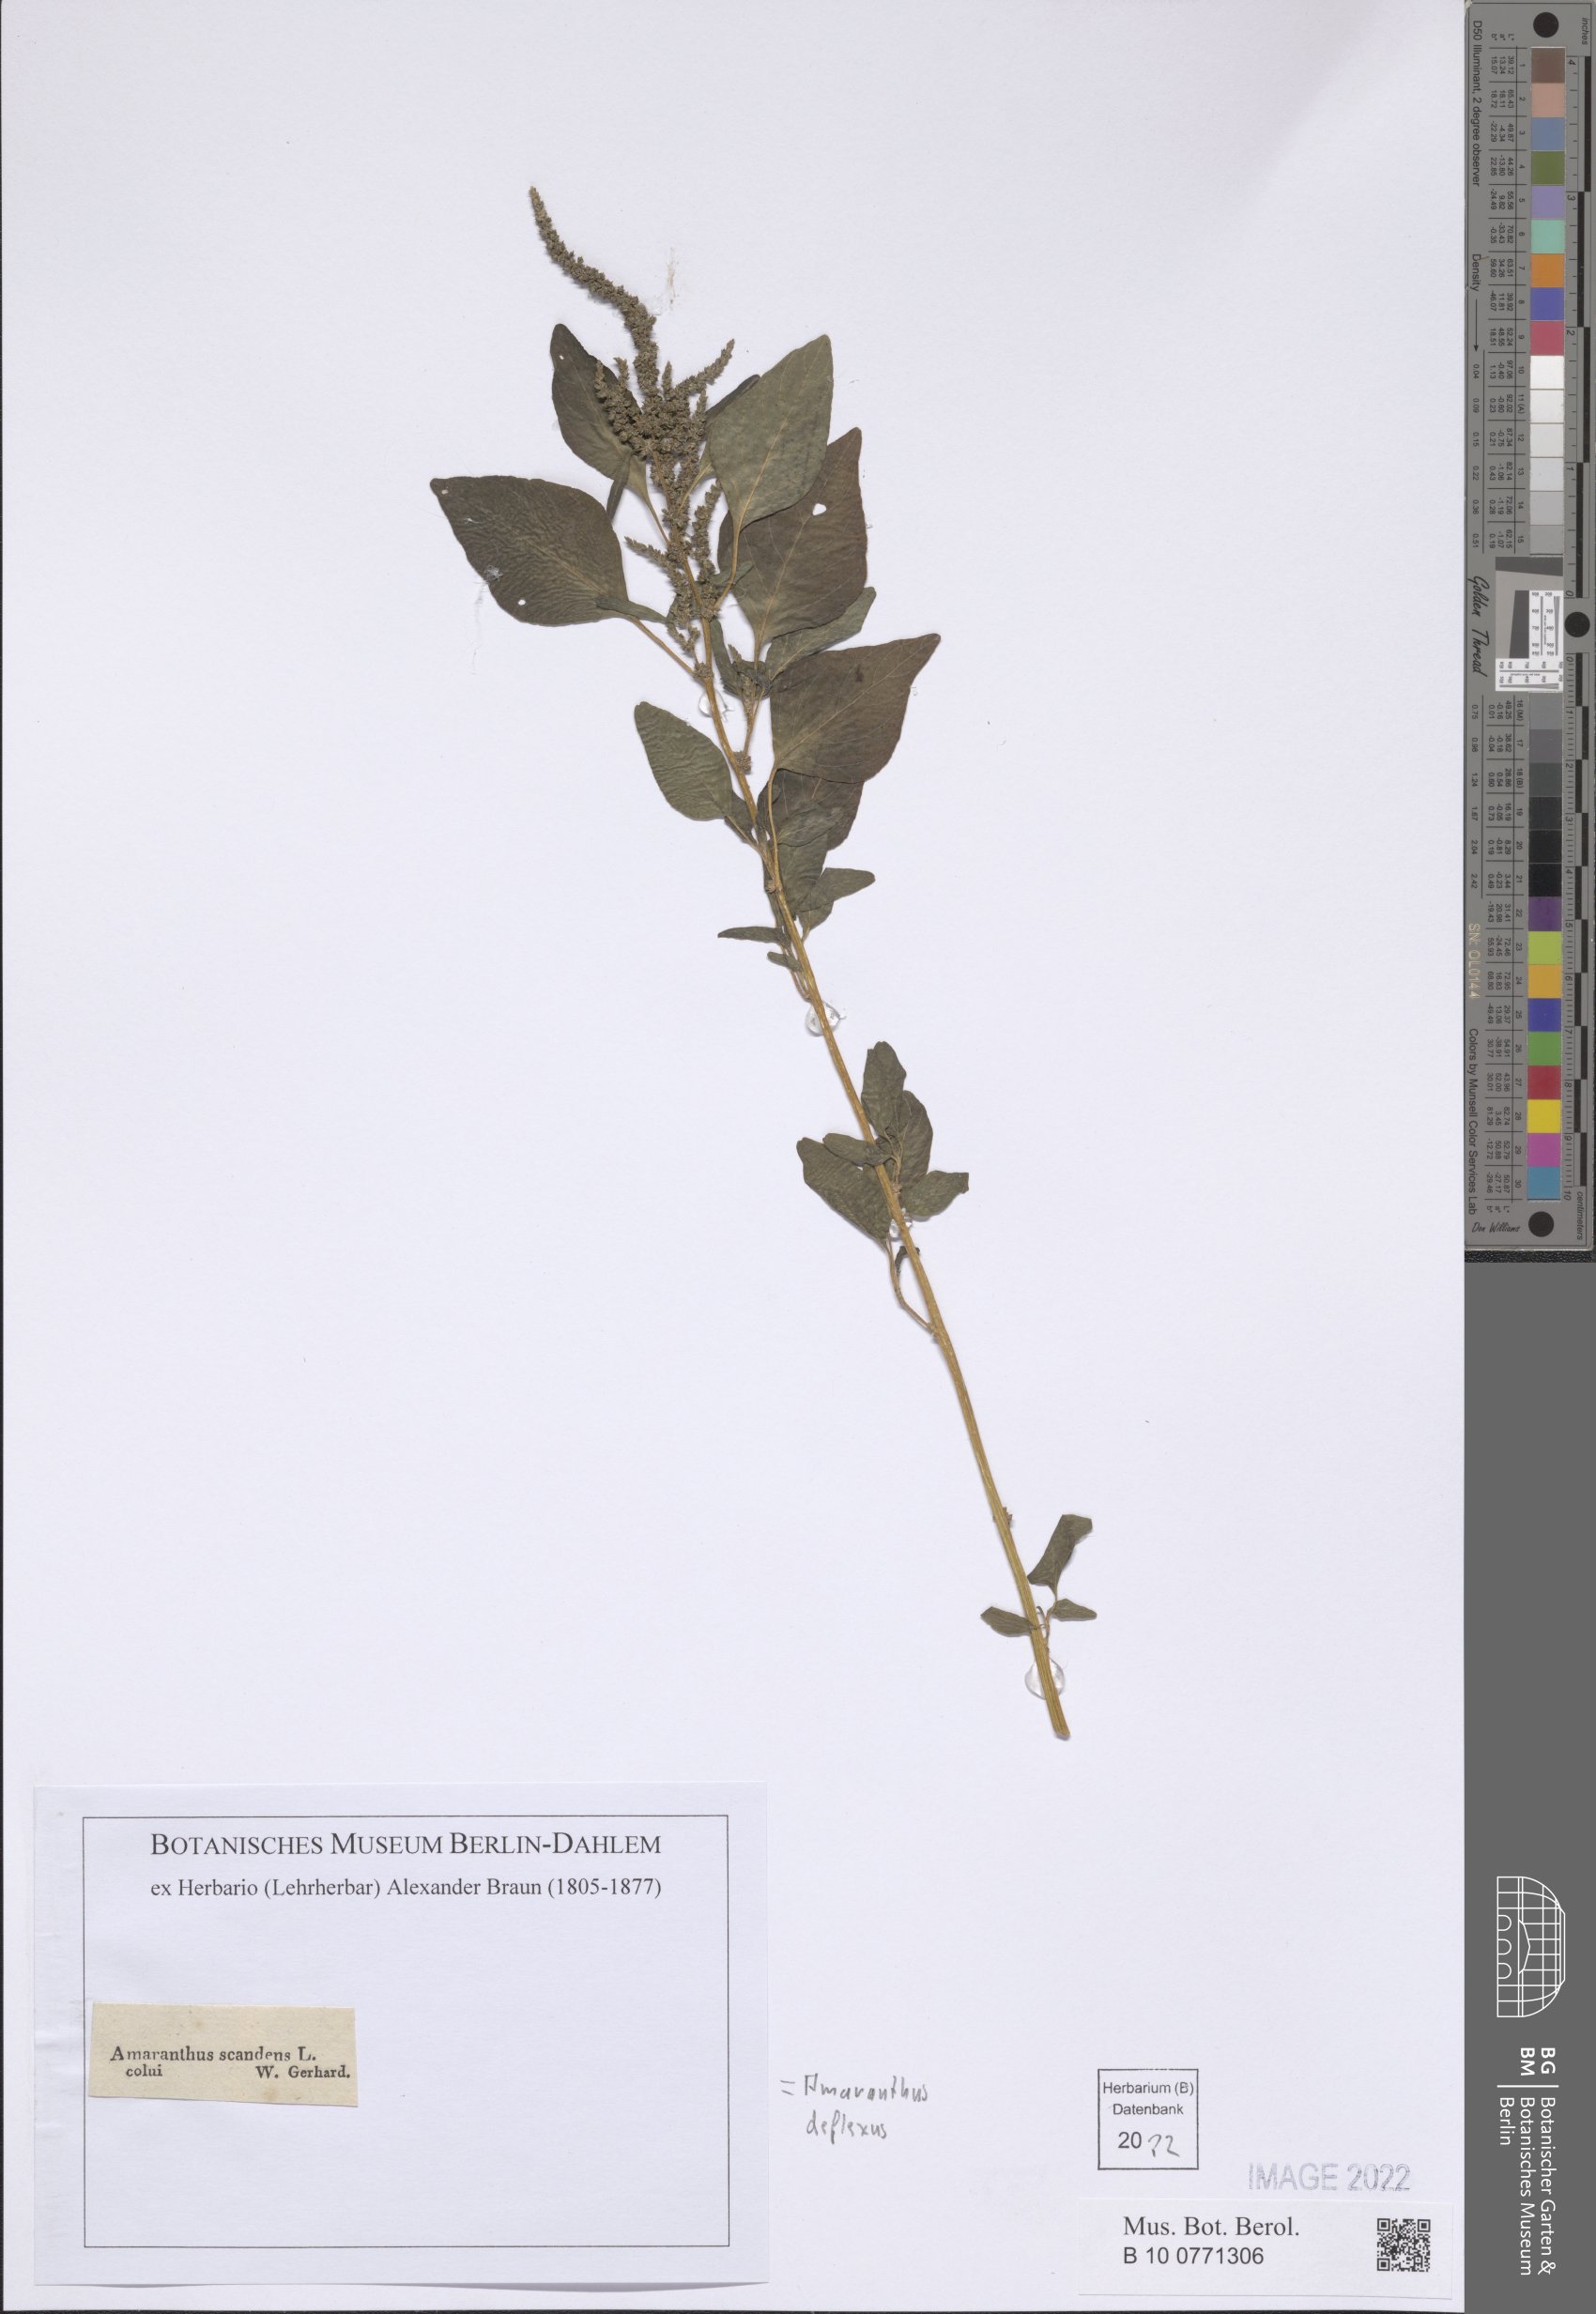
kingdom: Plantae
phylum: Tracheophyta
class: Magnoliopsida
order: Caryophyllales
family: Amaranthaceae
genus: Amaranthus
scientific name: Amaranthus deflexus
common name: Perennial pigweed
